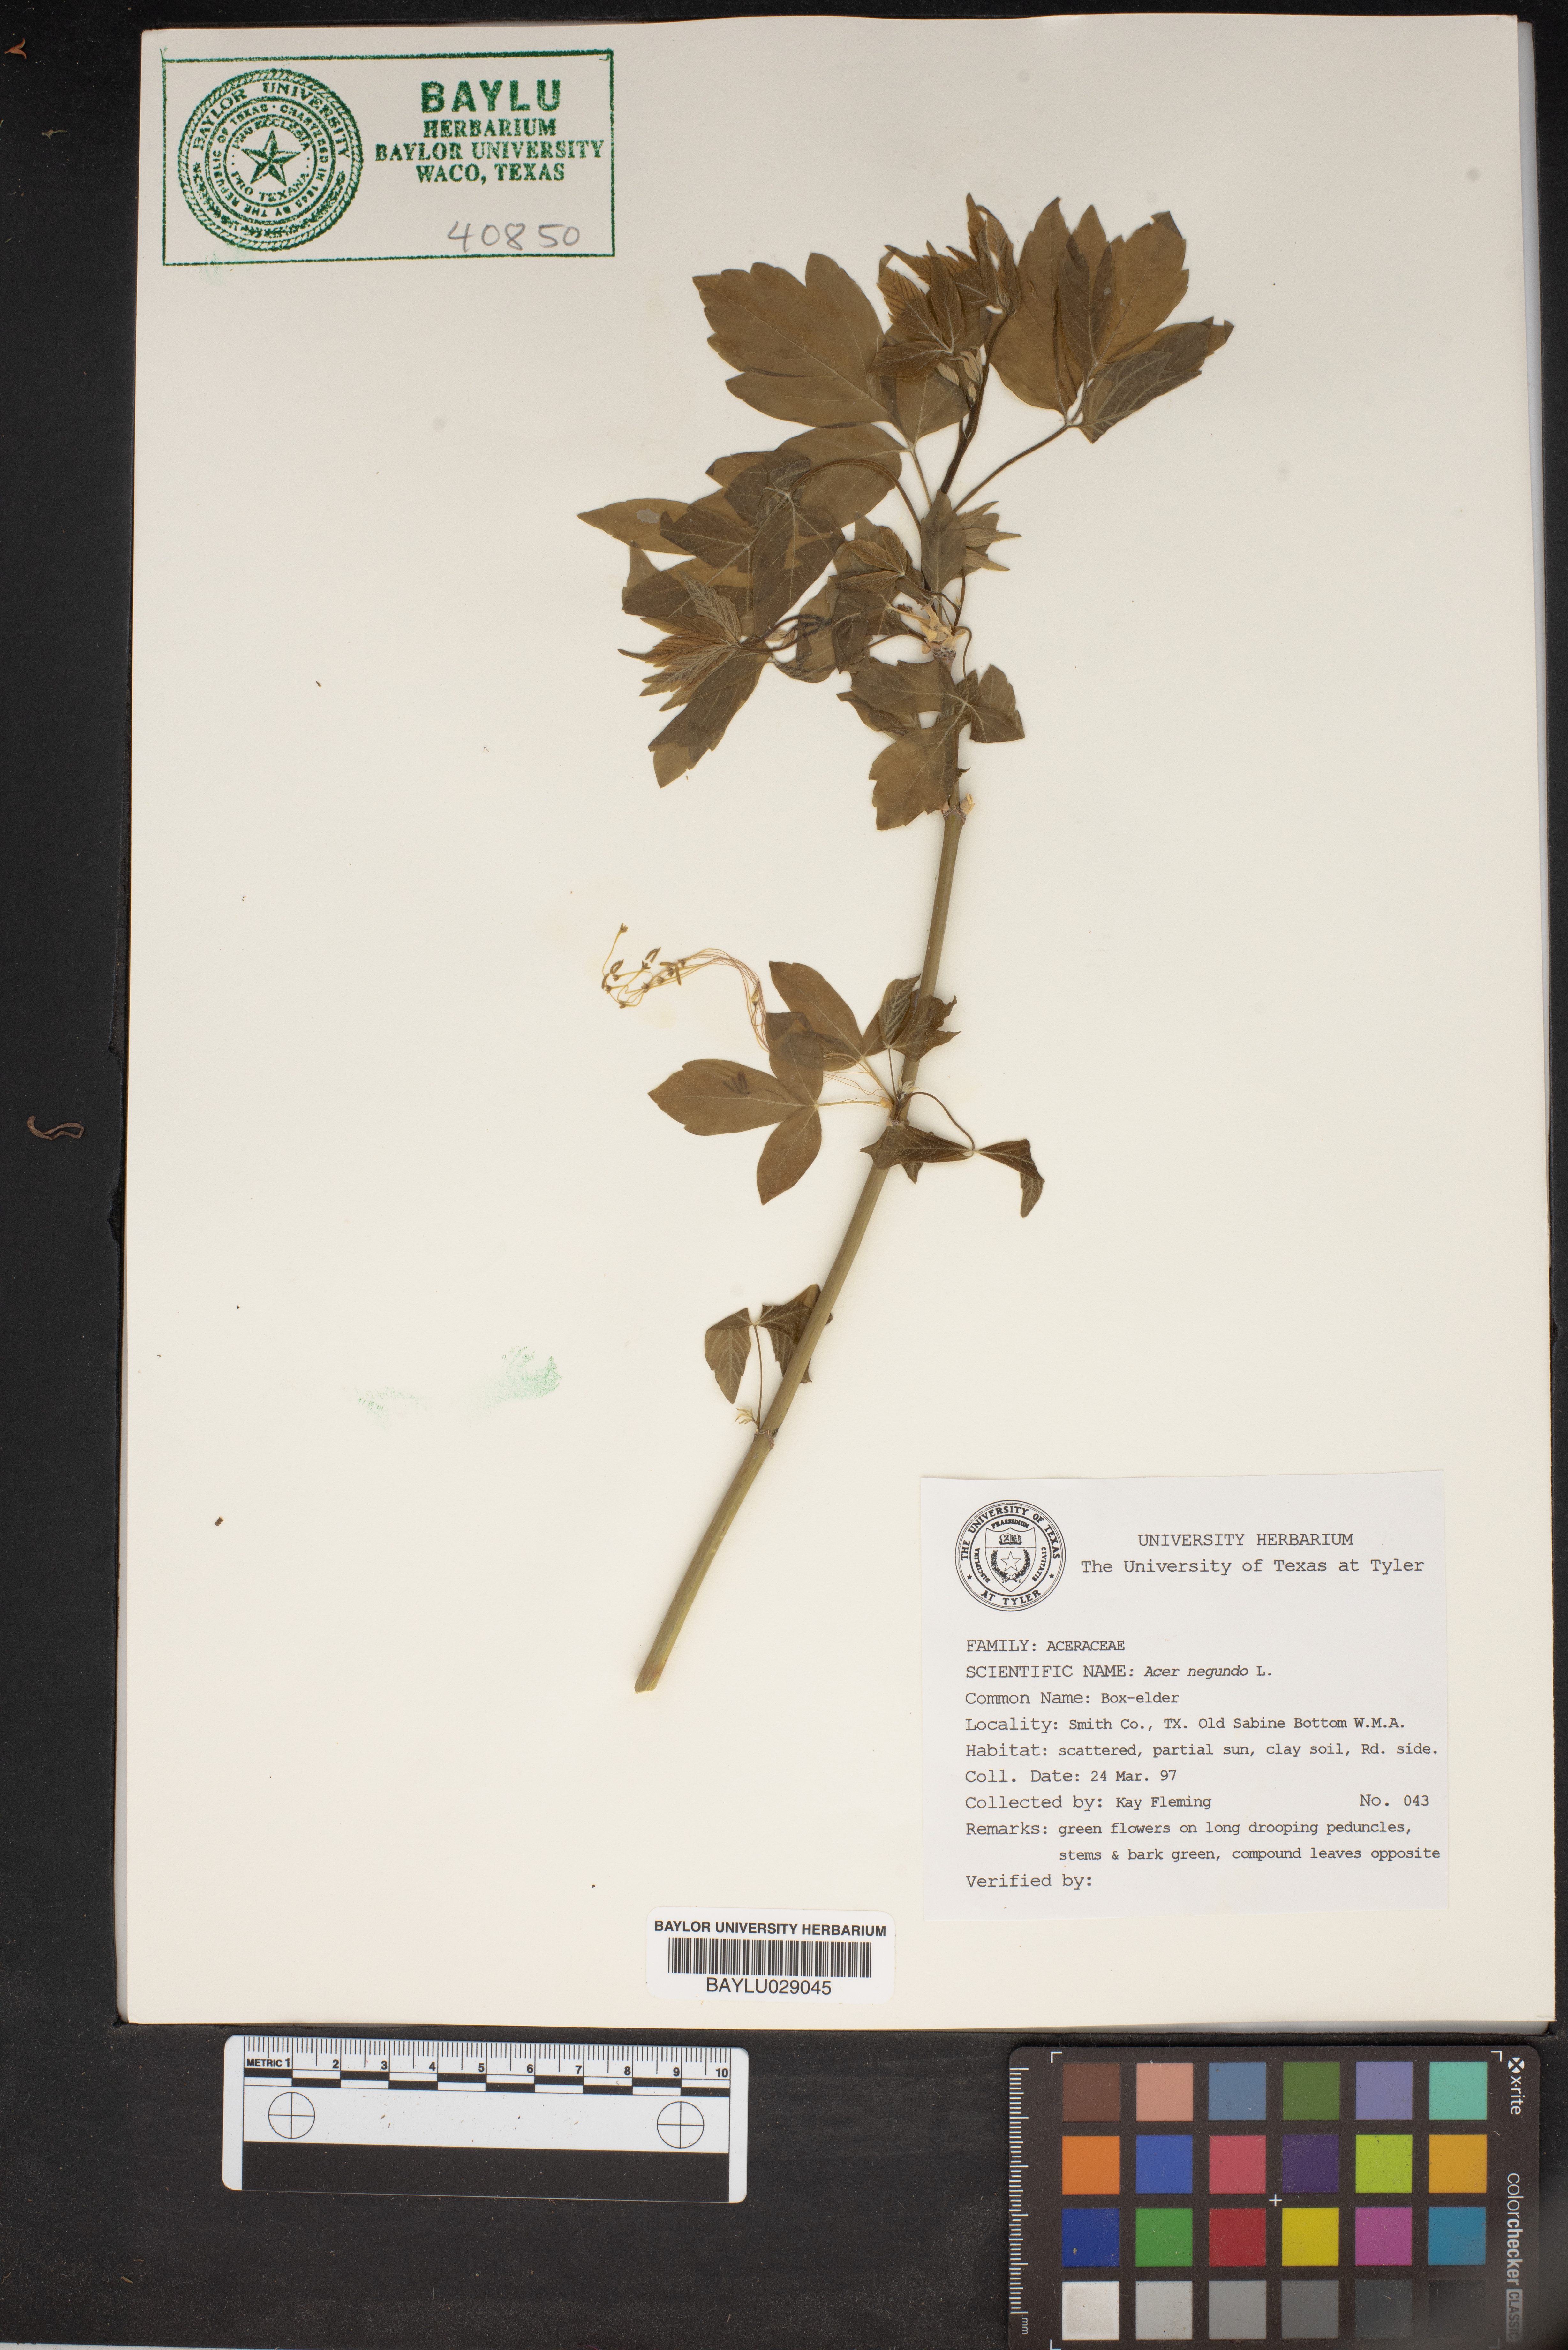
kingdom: Plantae
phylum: Tracheophyta
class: Magnoliopsida
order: Sapindales
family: Sapindaceae
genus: Acer
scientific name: Acer negundo
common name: Ashleaf maple
